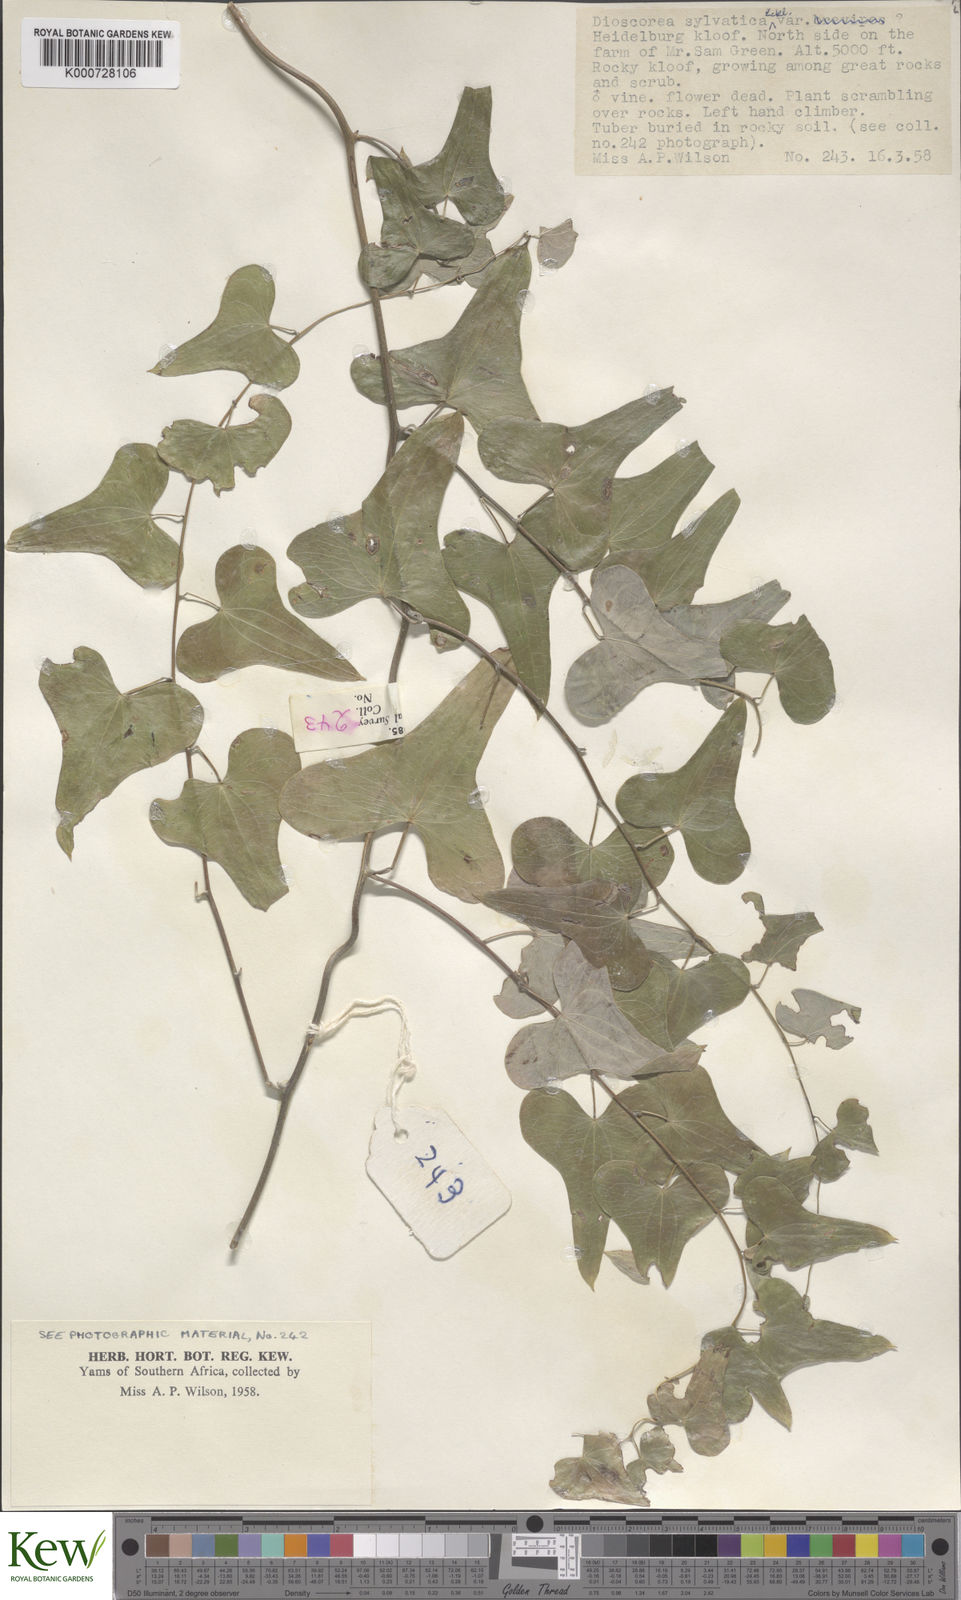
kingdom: Plantae
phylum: Tracheophyta
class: Liliopsida
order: Dioscoreales
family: Dioscoreaceae
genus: Dioscorea
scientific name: Dioscorea sylvatica
